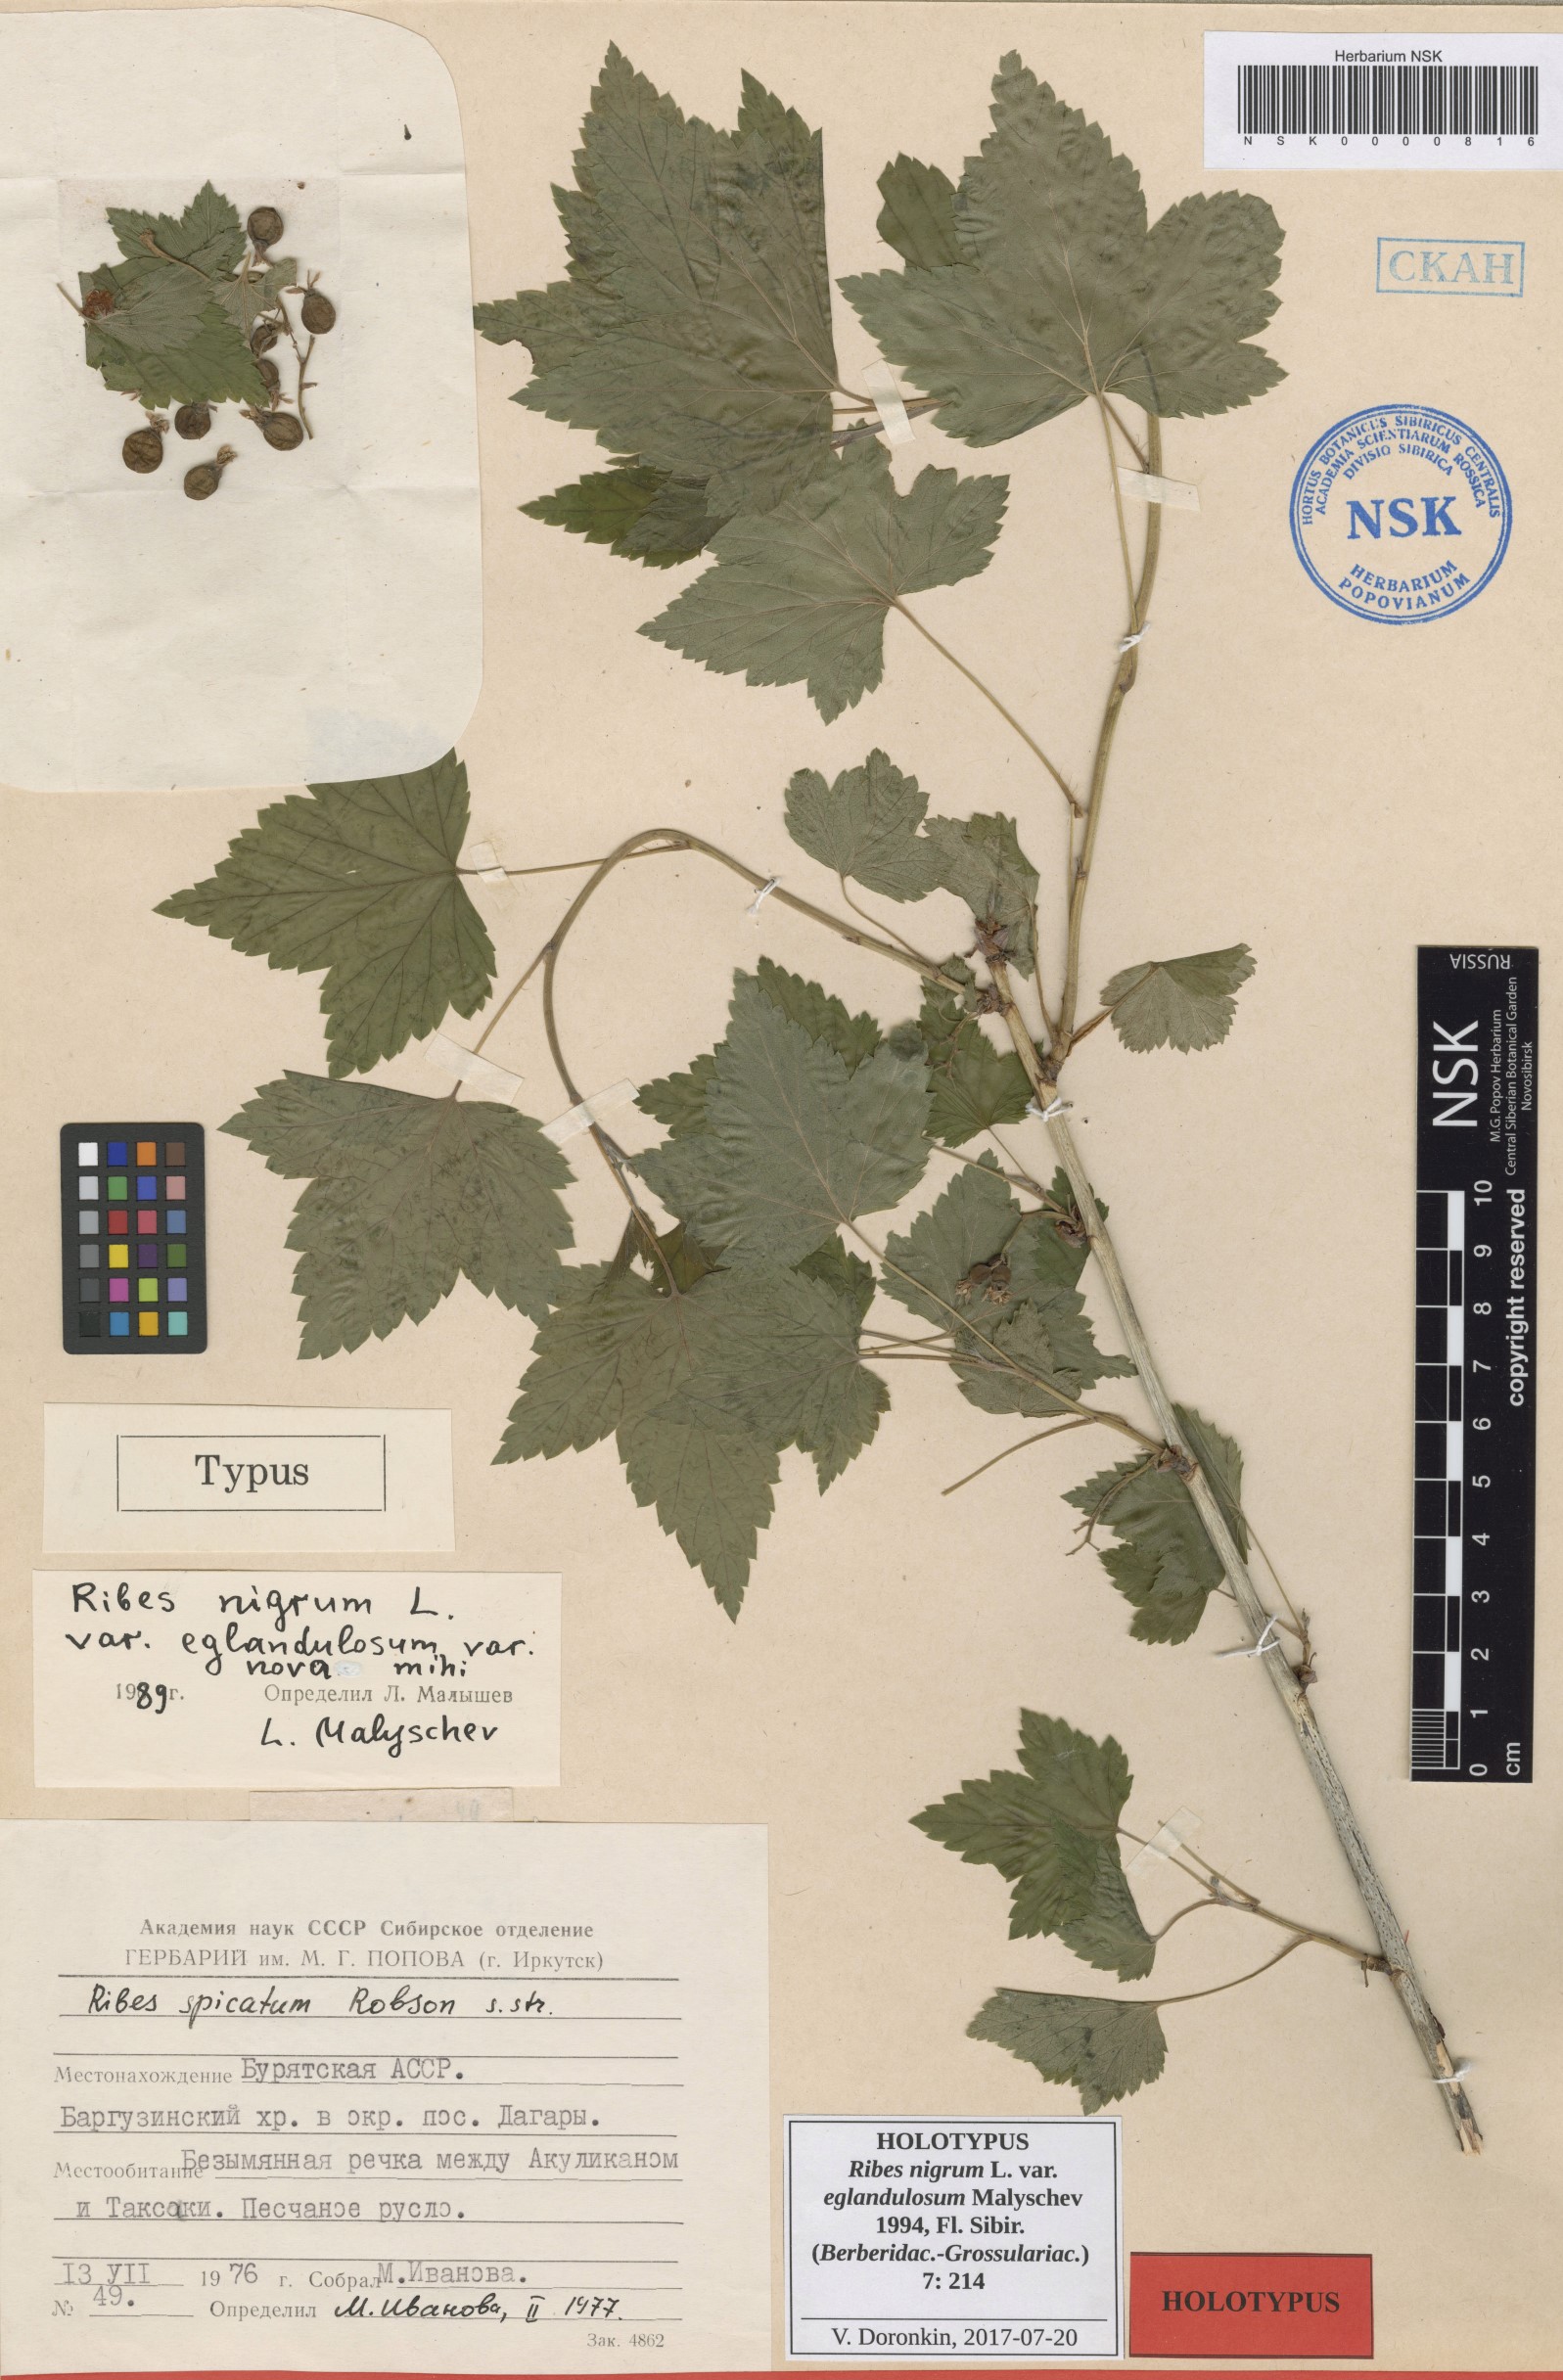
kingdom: Plantae
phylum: Tracheophyta
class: Magnoliopsida
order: Saxifragales
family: Grossulariaceae
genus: Ribes
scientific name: Ribes nigrum
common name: Black currant
